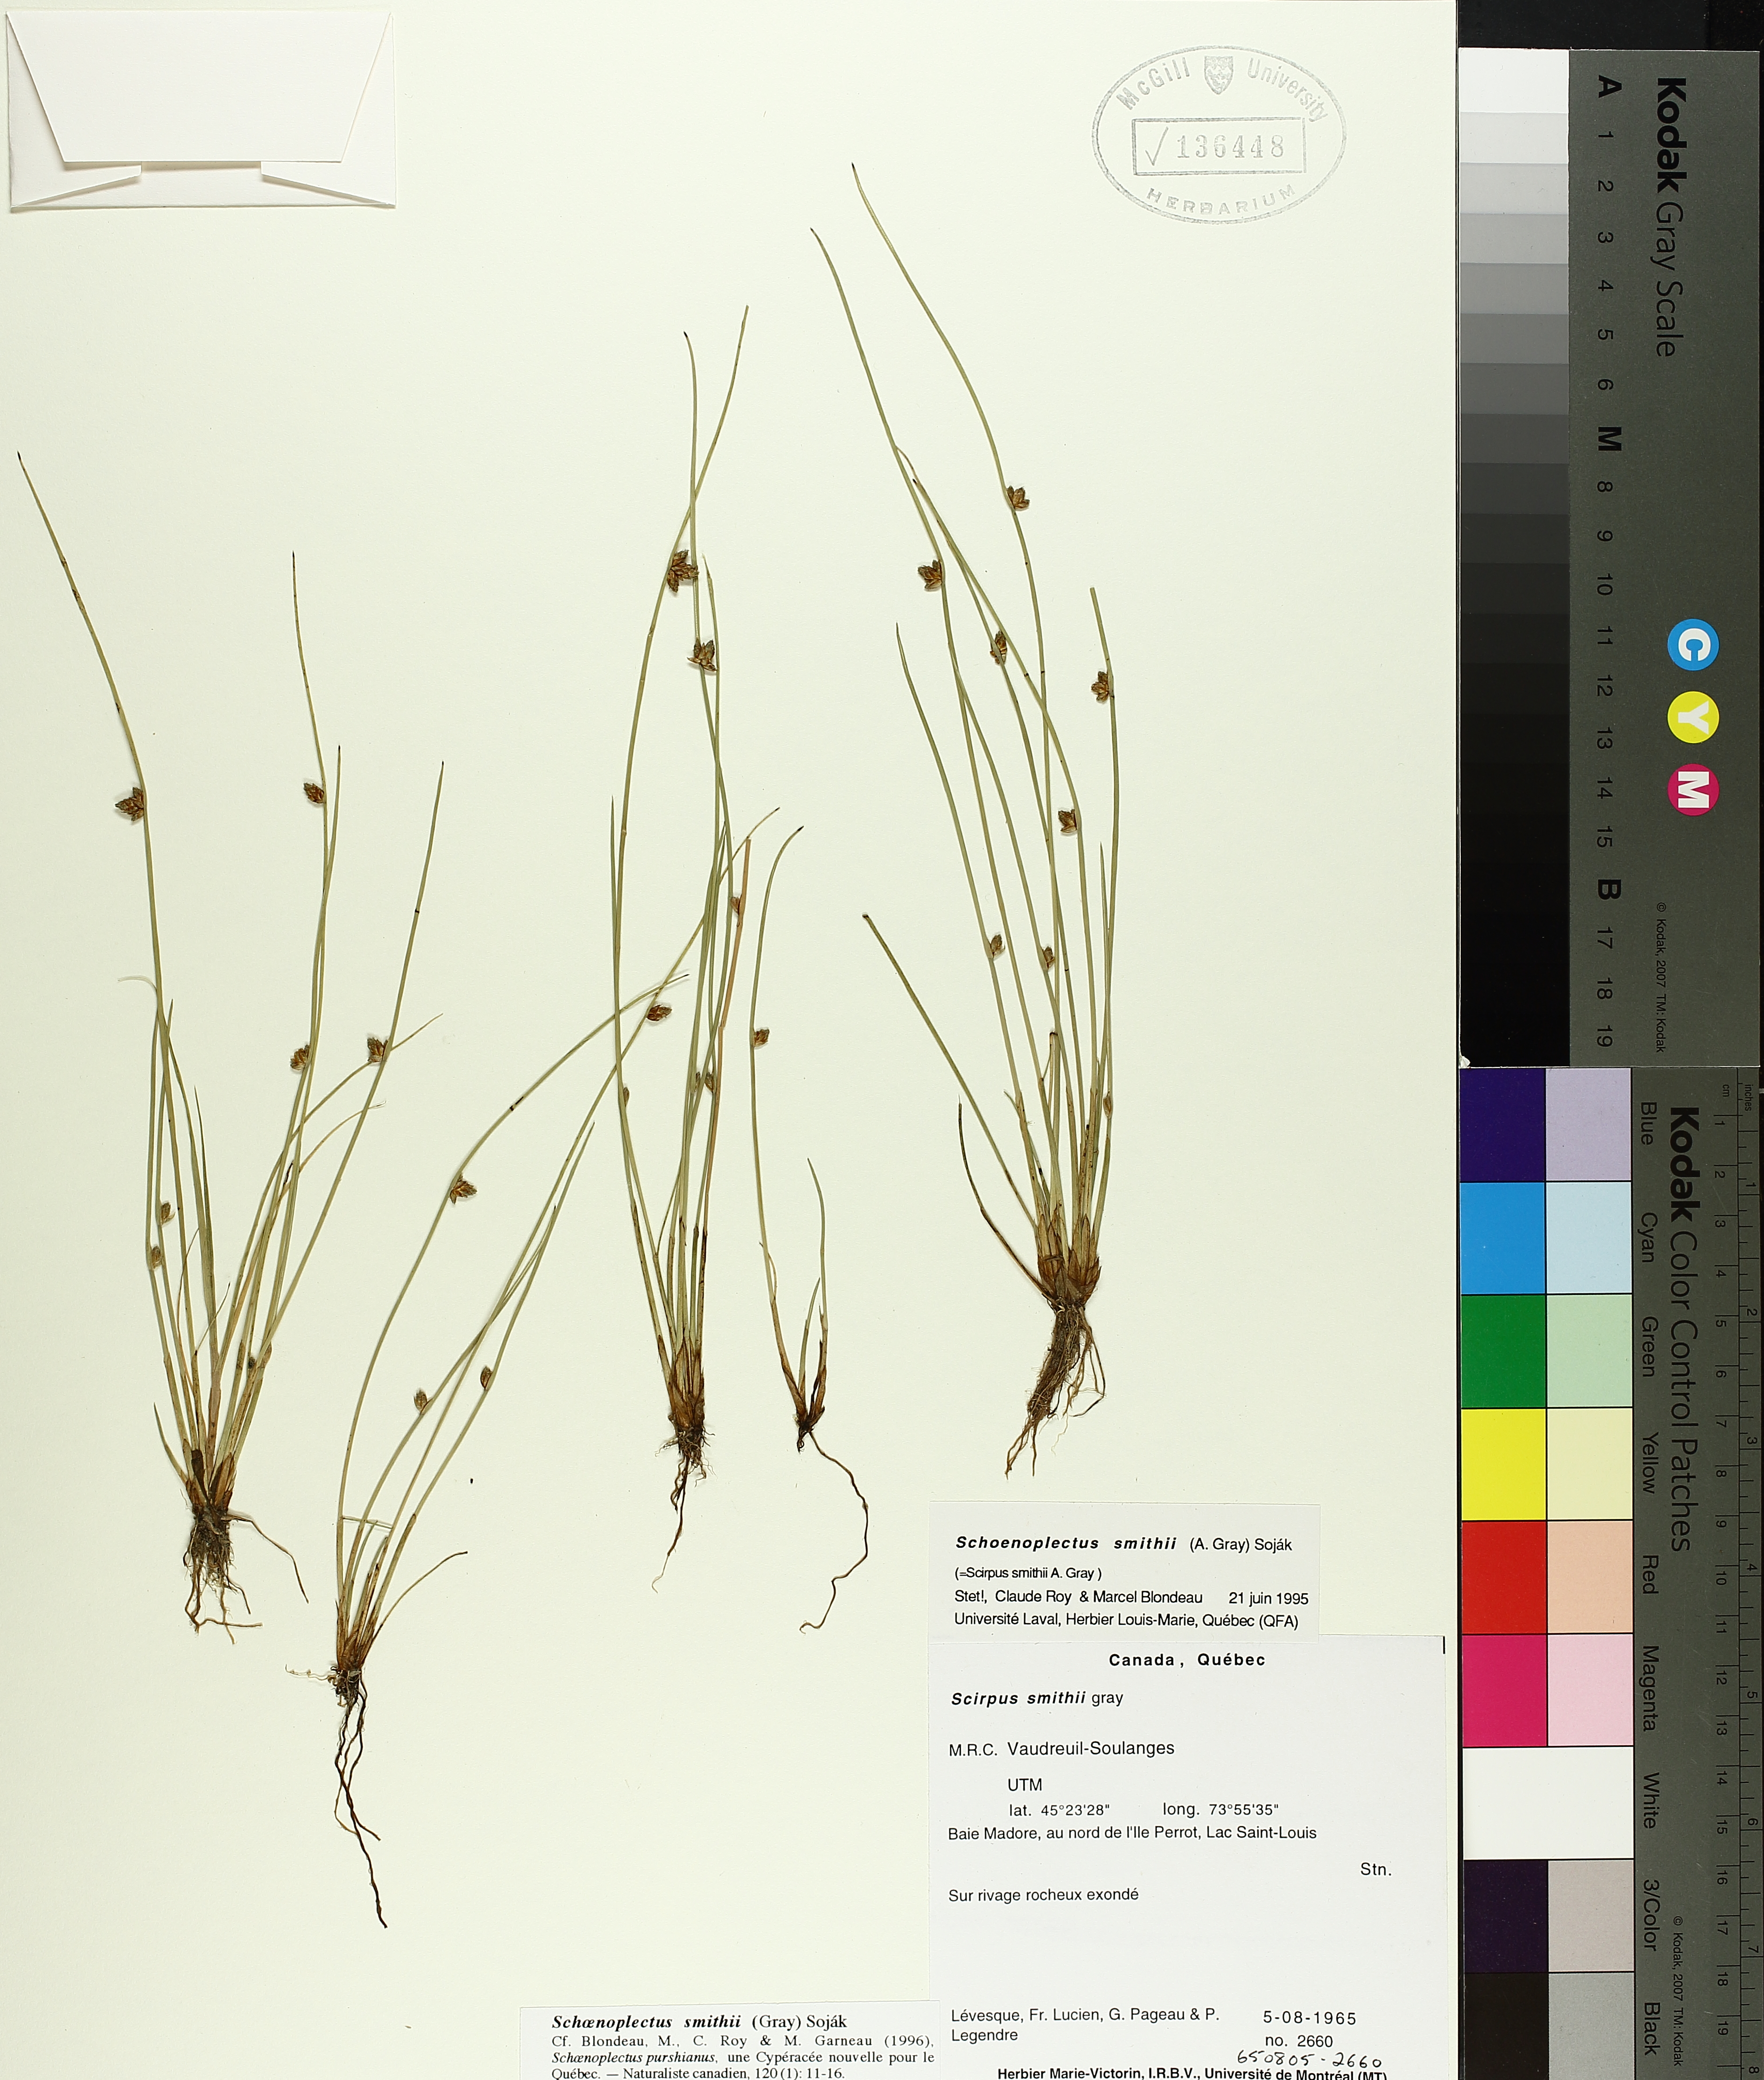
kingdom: Plantae
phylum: Tracheophyta
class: Liliopsida
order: Poales
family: Cyperaceae
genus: Schoenoplectiella
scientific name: Schoenoplectiella smithii
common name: Smith's bulrush
